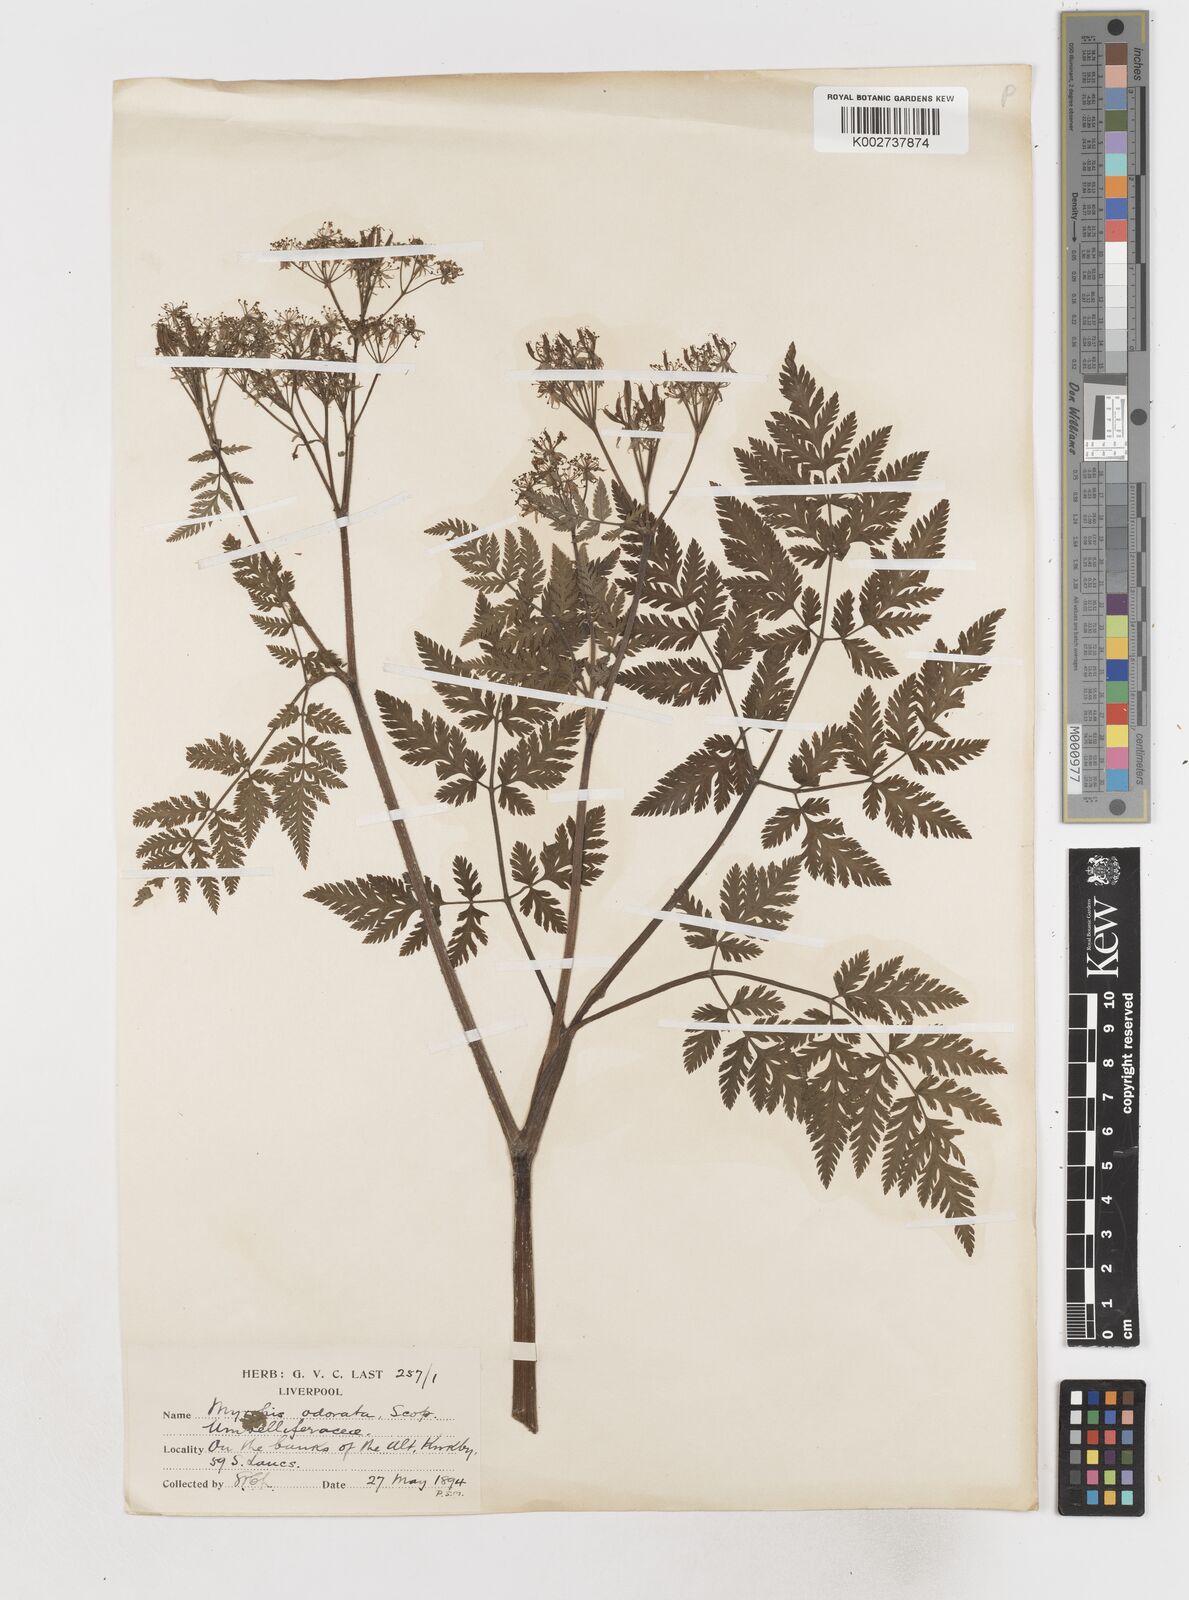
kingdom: Plantae
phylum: Tracheophyta
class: Magnoliopsida
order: Apiales
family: Apiaceae
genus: Myrrhis
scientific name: Myrrhis odorata
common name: Sweet cicely
